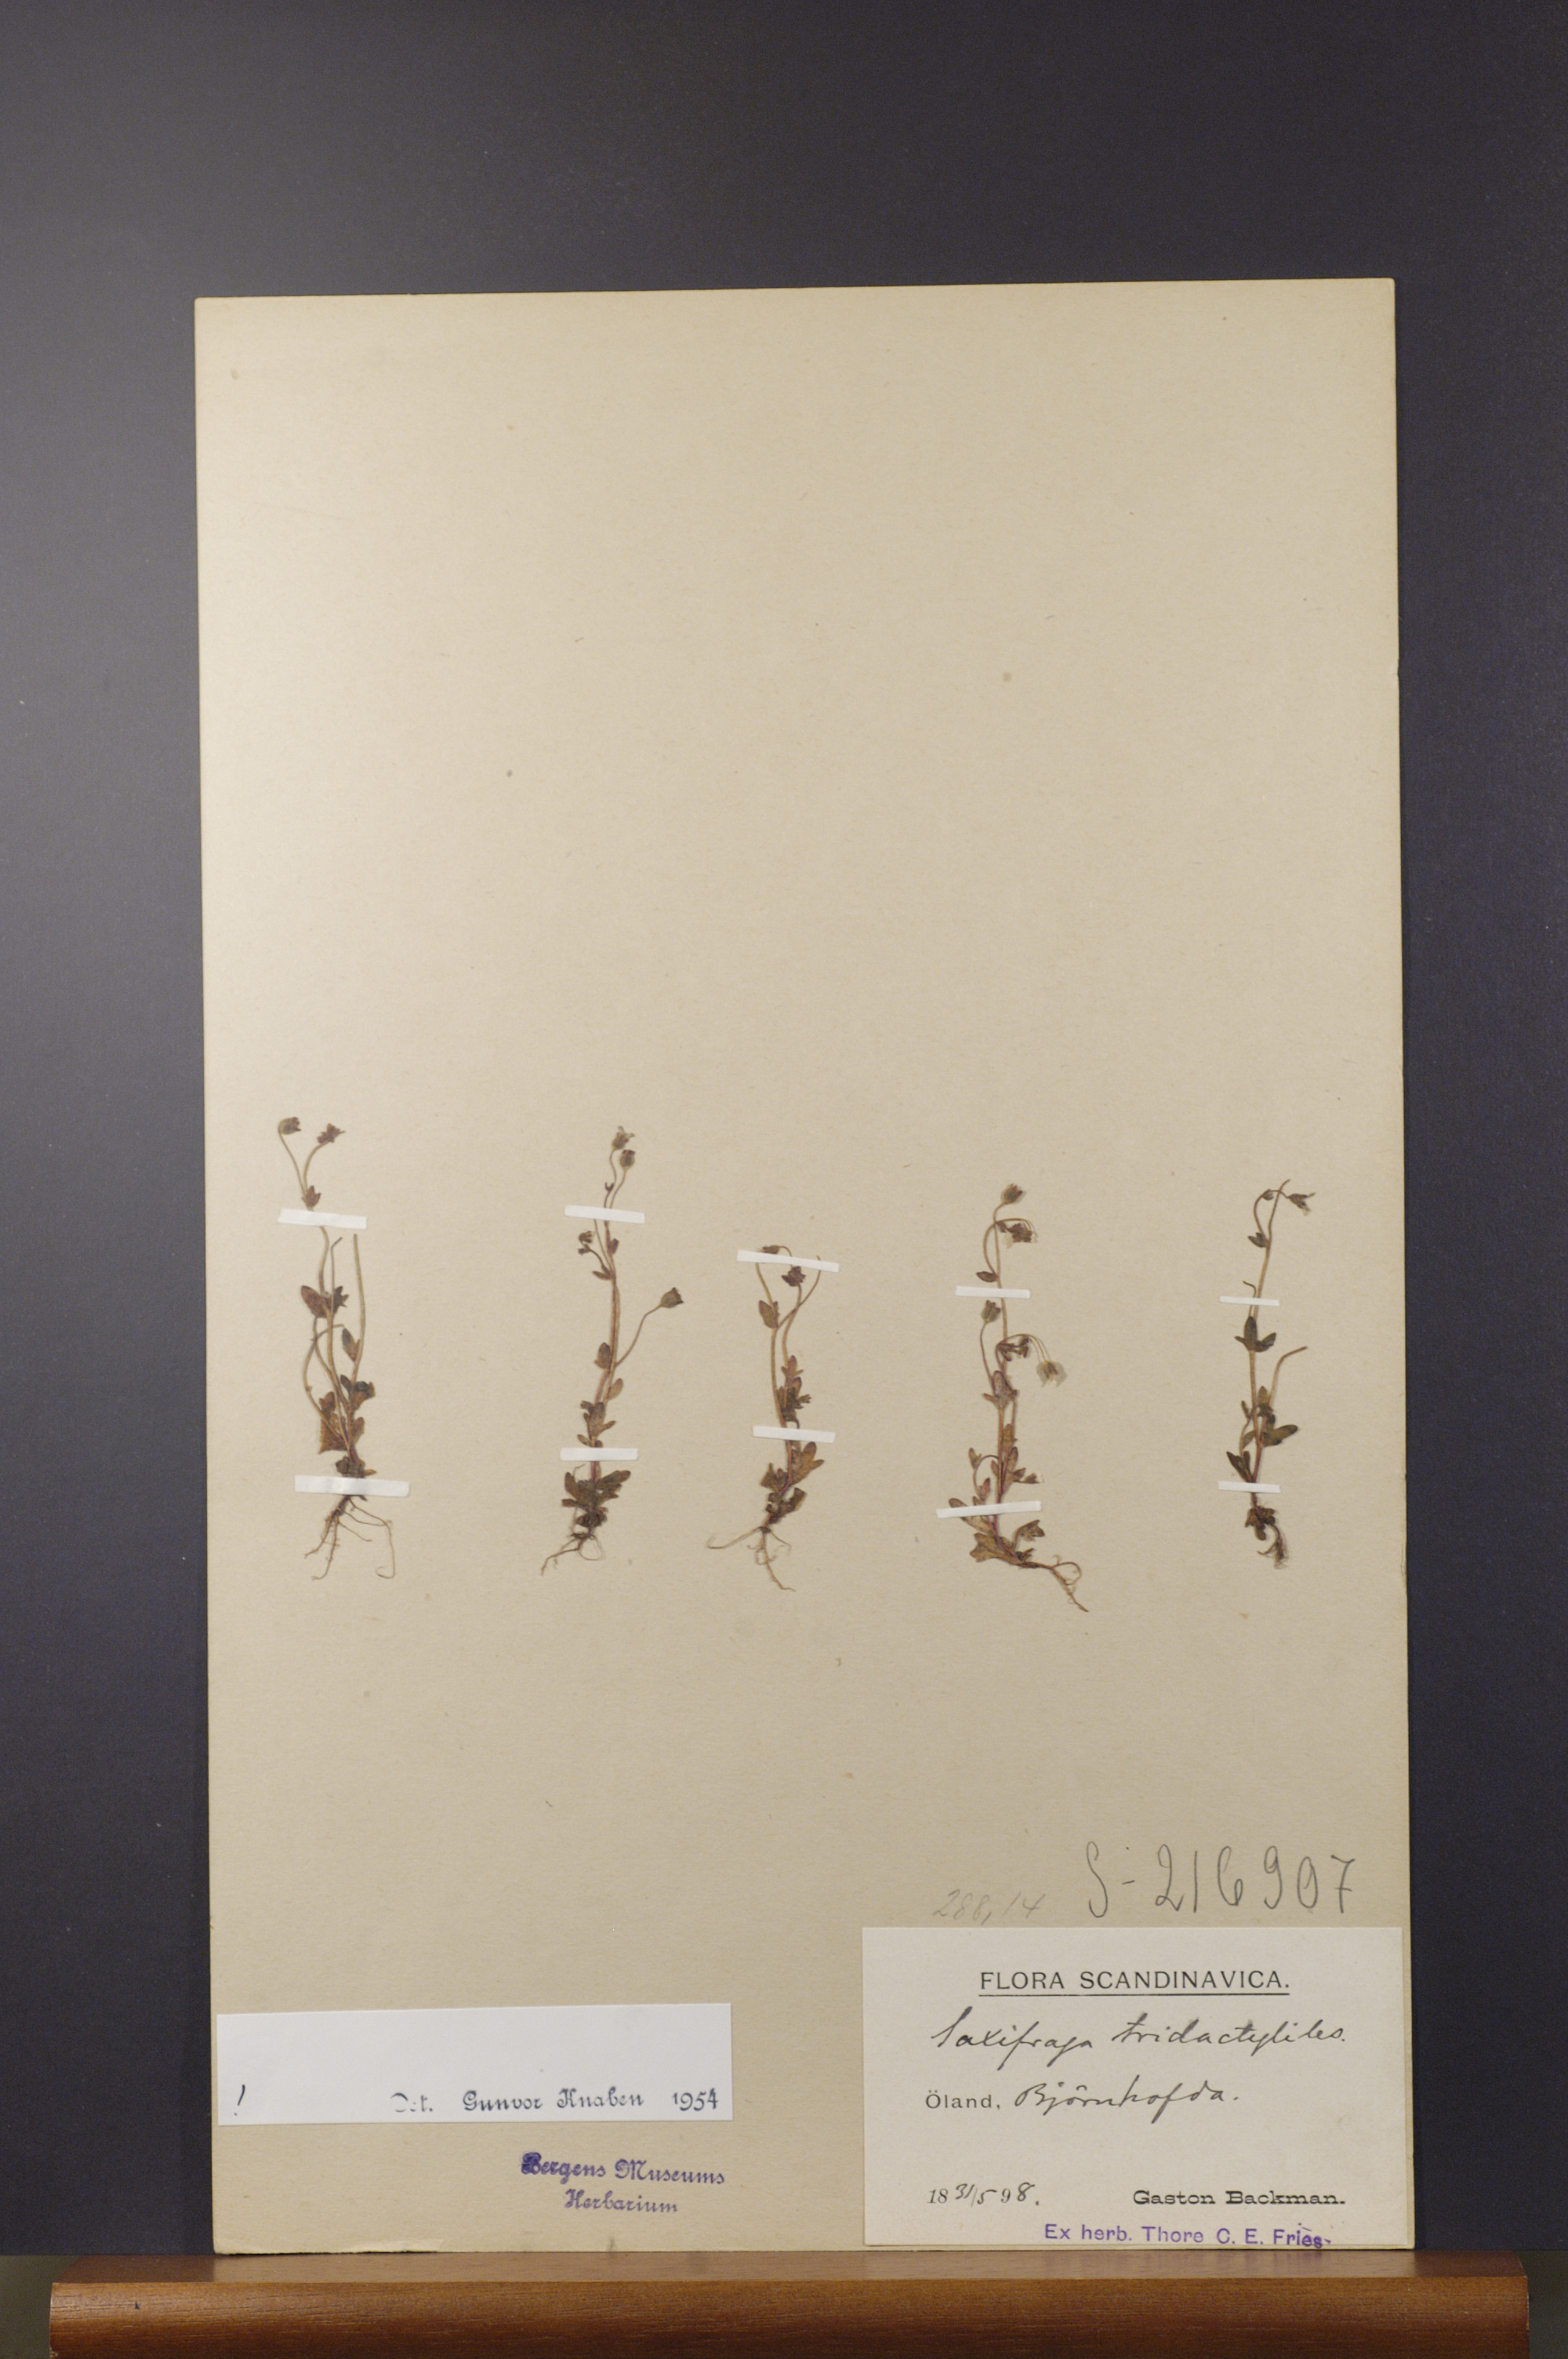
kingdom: Plantae
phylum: Tracheophyta
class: Magnoliopsida
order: Saxifragales
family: Saxifragaceae
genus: Saxifraga
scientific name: Saxifraga tridactylites
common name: Rue-leaved saxifrage
